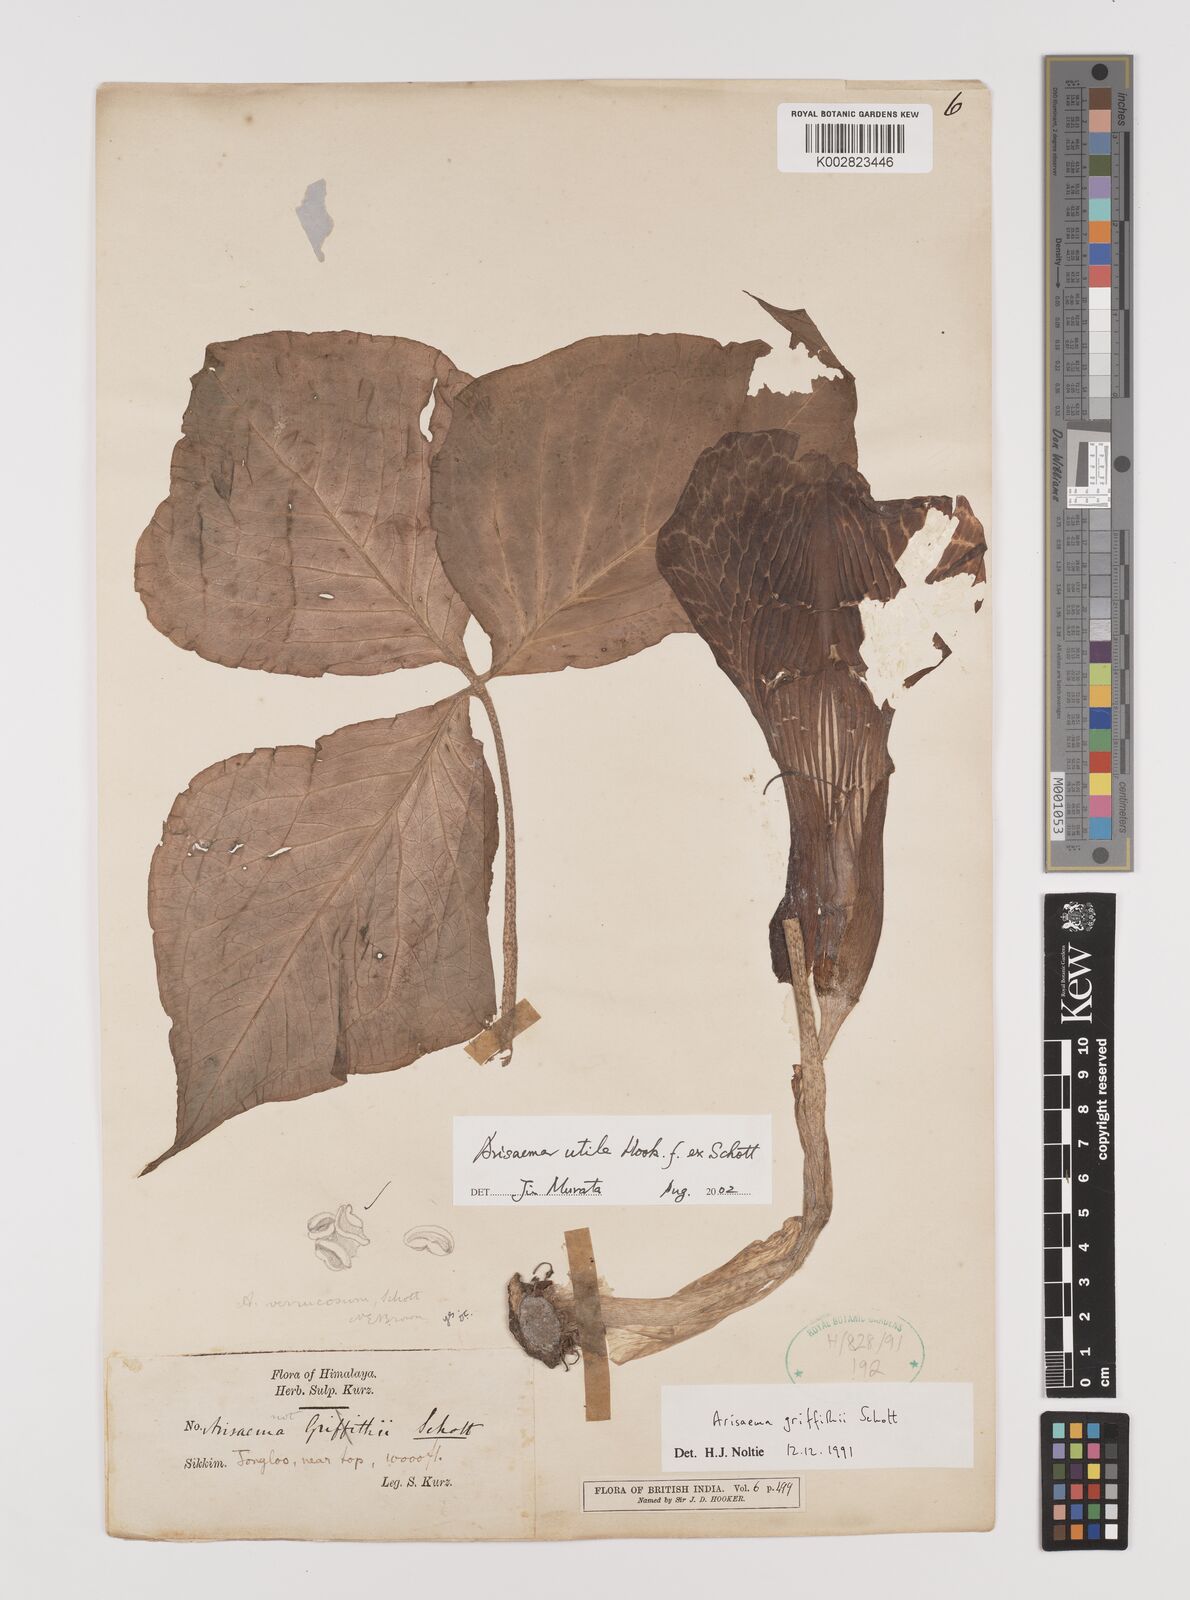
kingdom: Plantae
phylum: Tracheophyta
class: Liliopsida
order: Alismatales
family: Araceae
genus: Arisaema
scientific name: Arisaema utile
